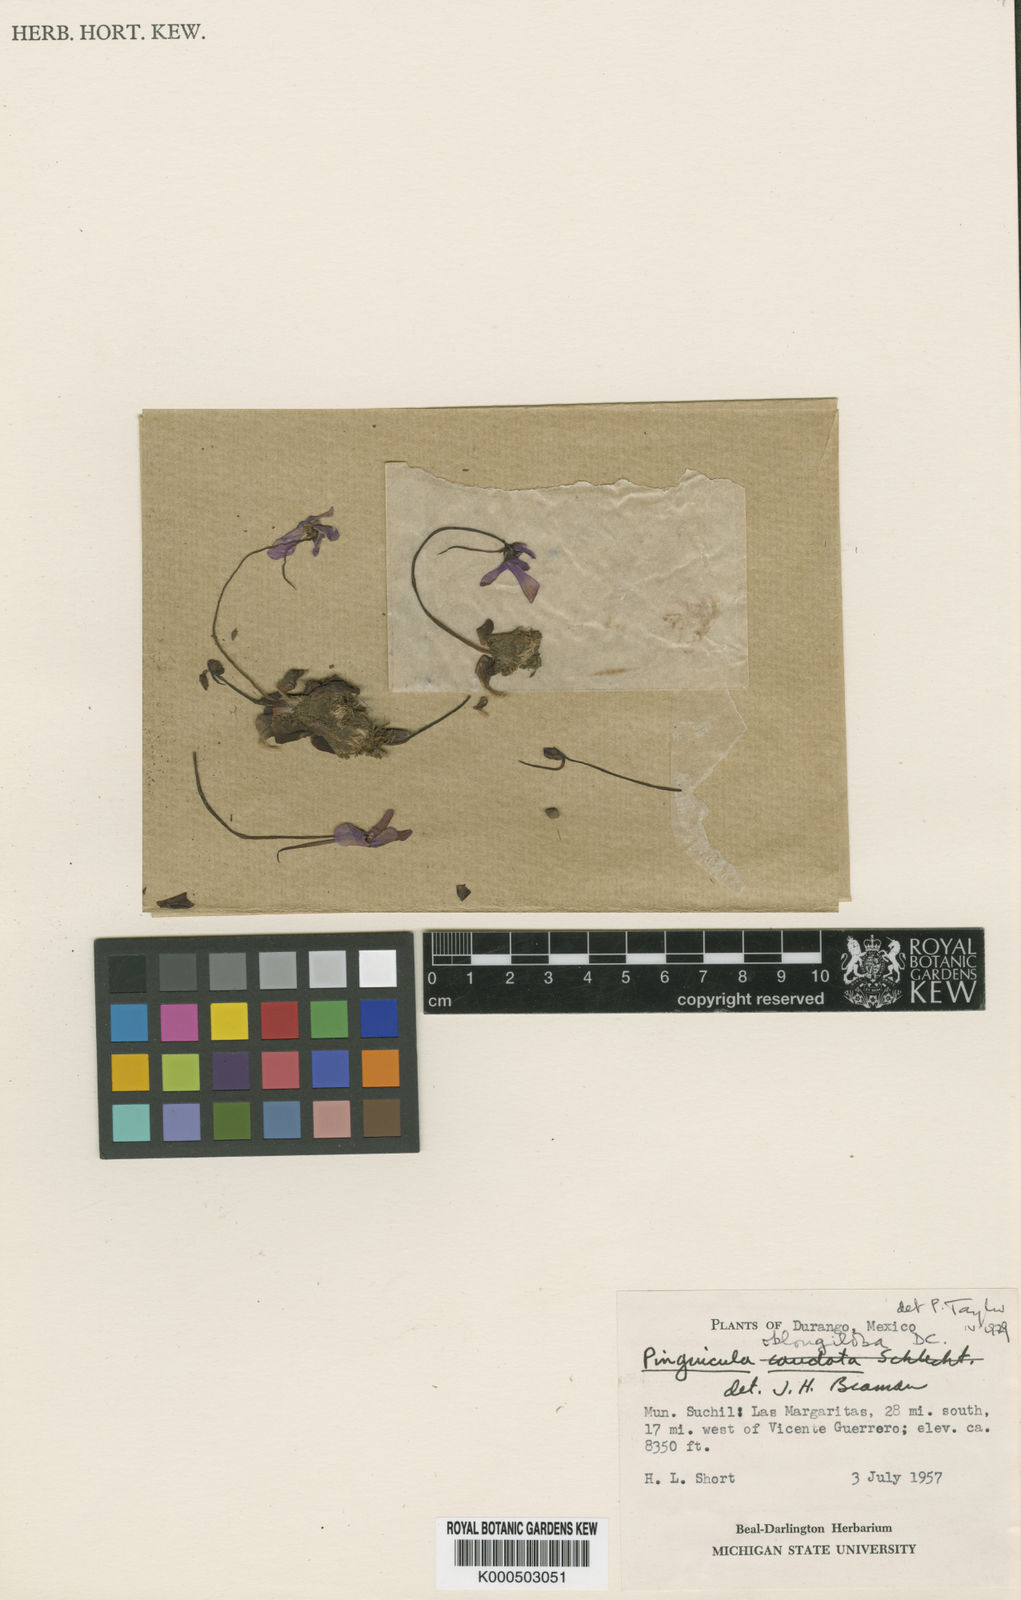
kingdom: Plantae
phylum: Tracheophyta
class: Magnoliopsida
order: Lamiales
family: Lentibulariaceae
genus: Pinguicula
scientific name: Pinguicula oblongiloba
